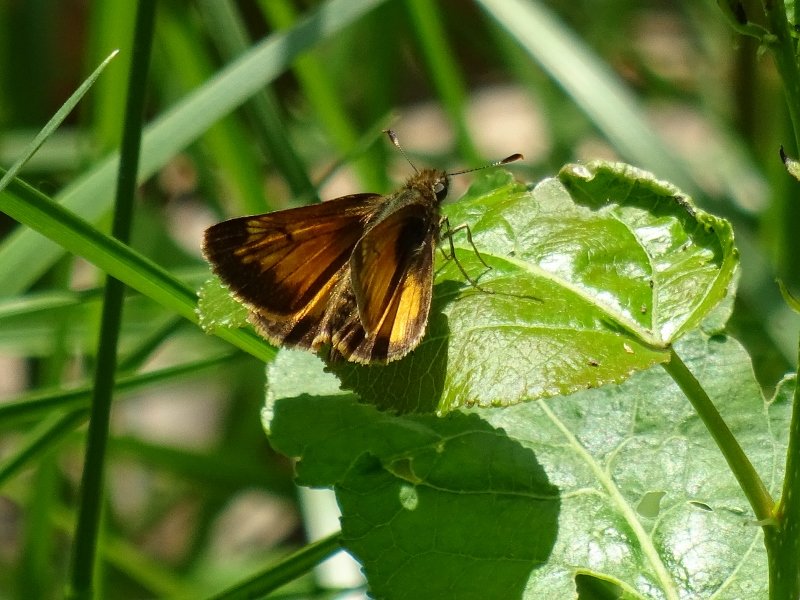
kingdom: Animalia
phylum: Arthropoda
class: Insecta
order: Lepidoptera
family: Hesperiidae
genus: Lon
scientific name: Lon hobomok
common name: Hobomok Skipper
